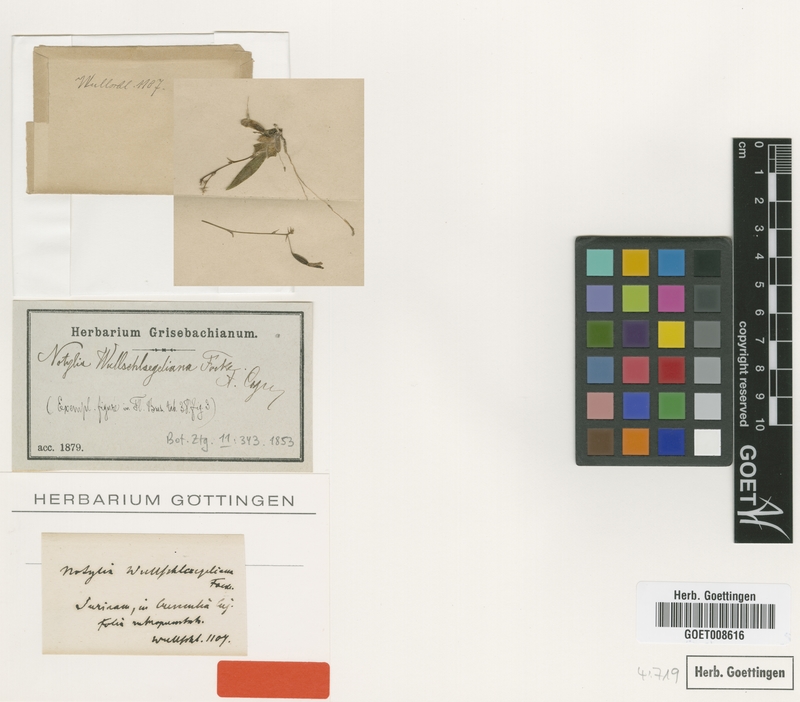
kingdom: Plantae
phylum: Tracheophyta
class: Liliopsida
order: Asparagales
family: Orchidaceae
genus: Macroclinium
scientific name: Macroclinium wullschlaegelianum
